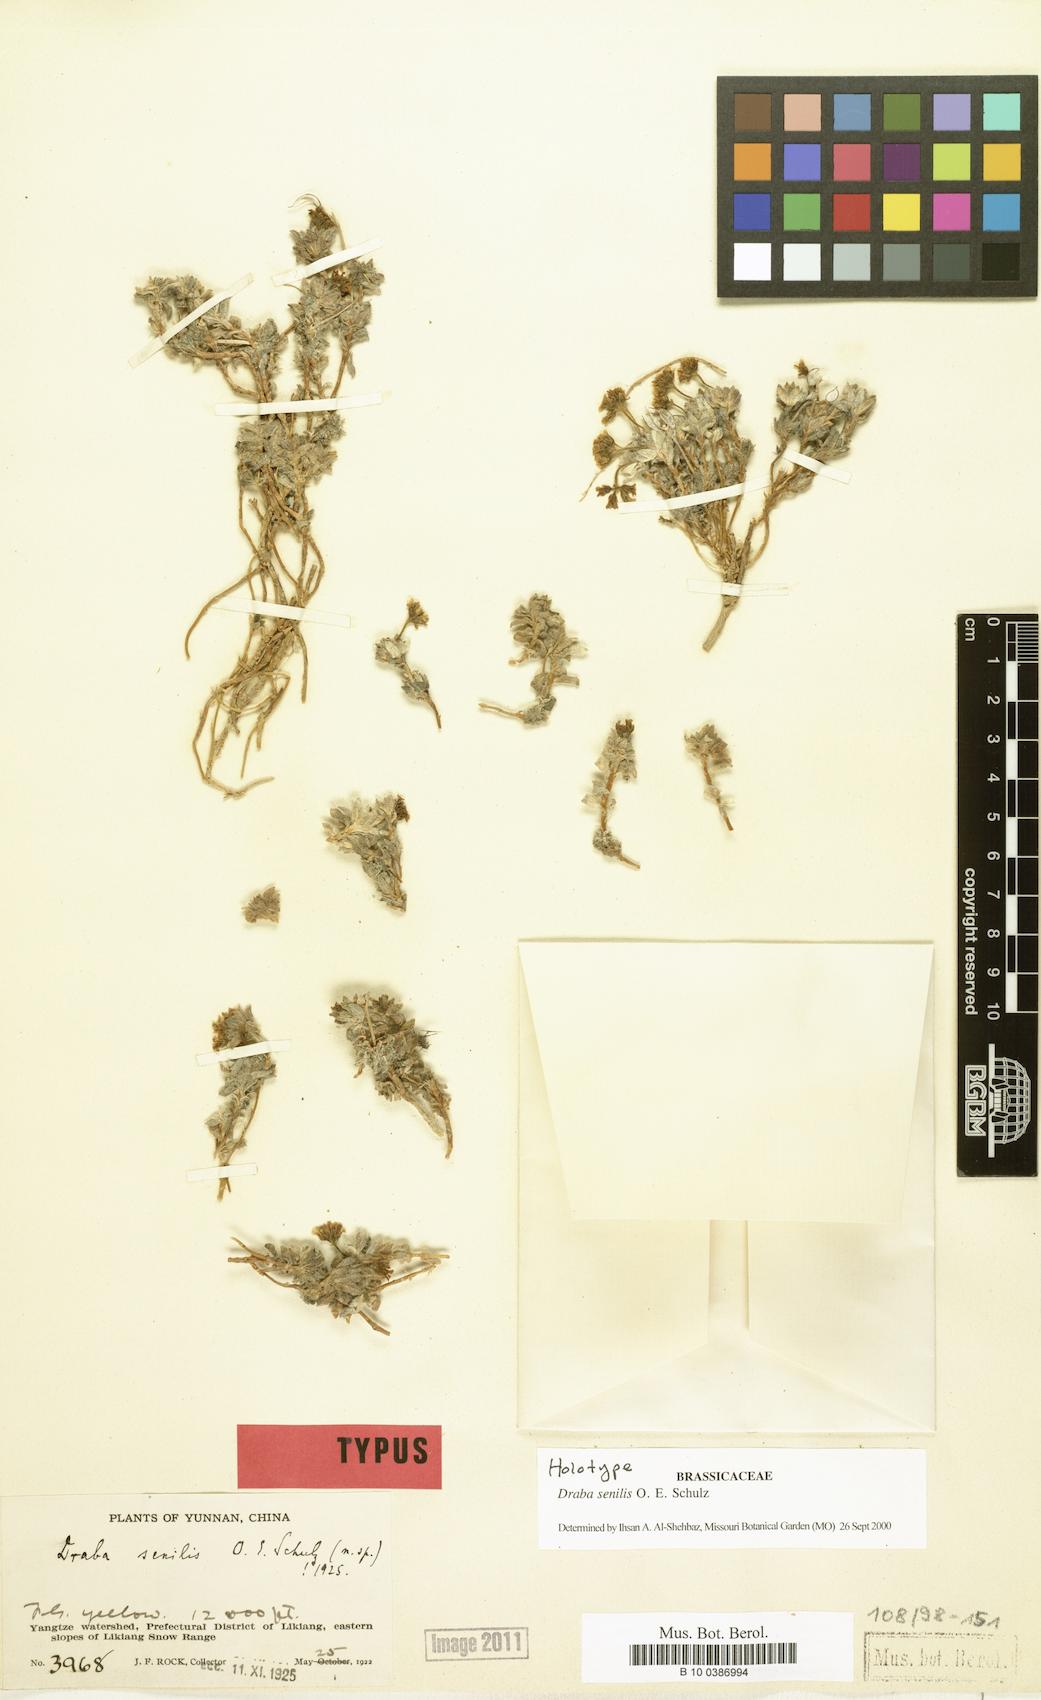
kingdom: Plantae
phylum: Tracheophyta
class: Magnoliopsida
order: Brassicales
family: Brassicaceae
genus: Draba
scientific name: Draba senilis
